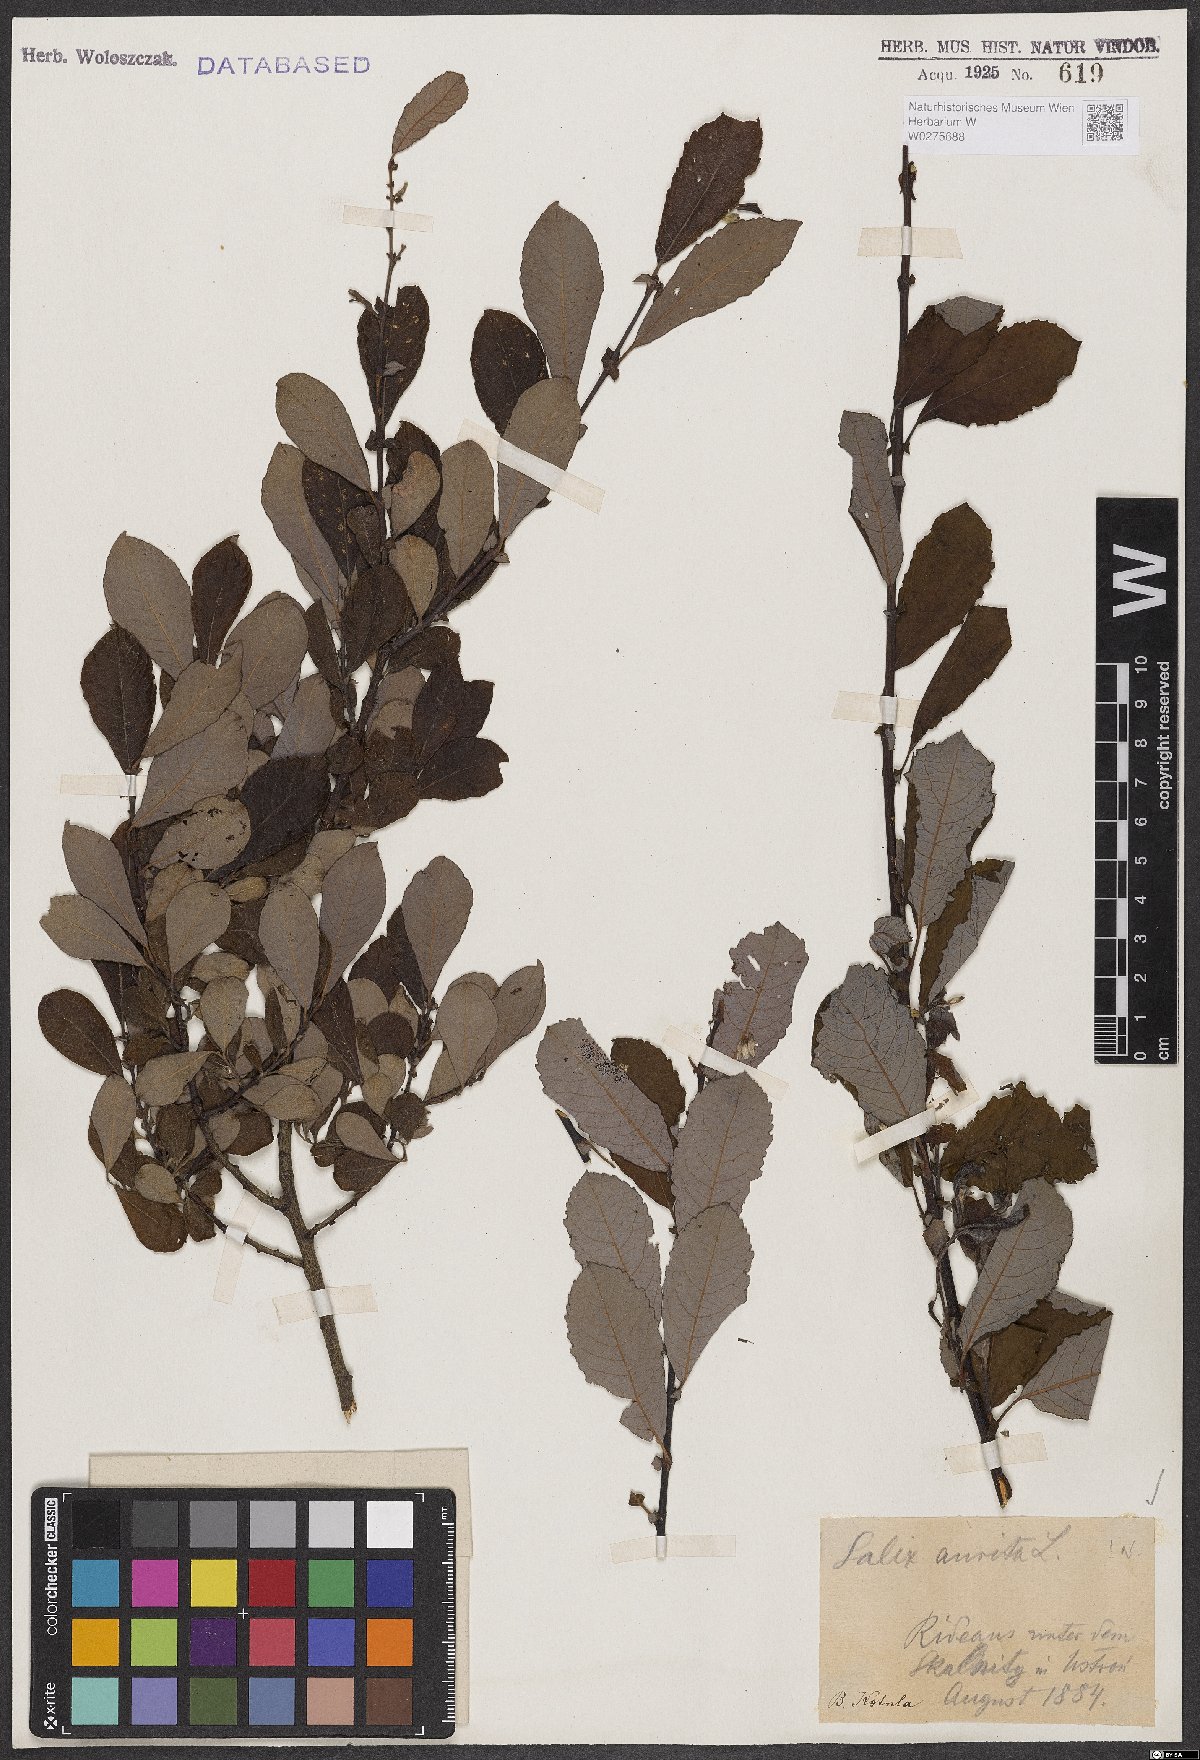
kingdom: Plantae
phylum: Tracheophyta
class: Magnoliopsida
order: Malpighiales
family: Salicaceae
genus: Salix
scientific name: Salix aurita
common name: Eared willow
